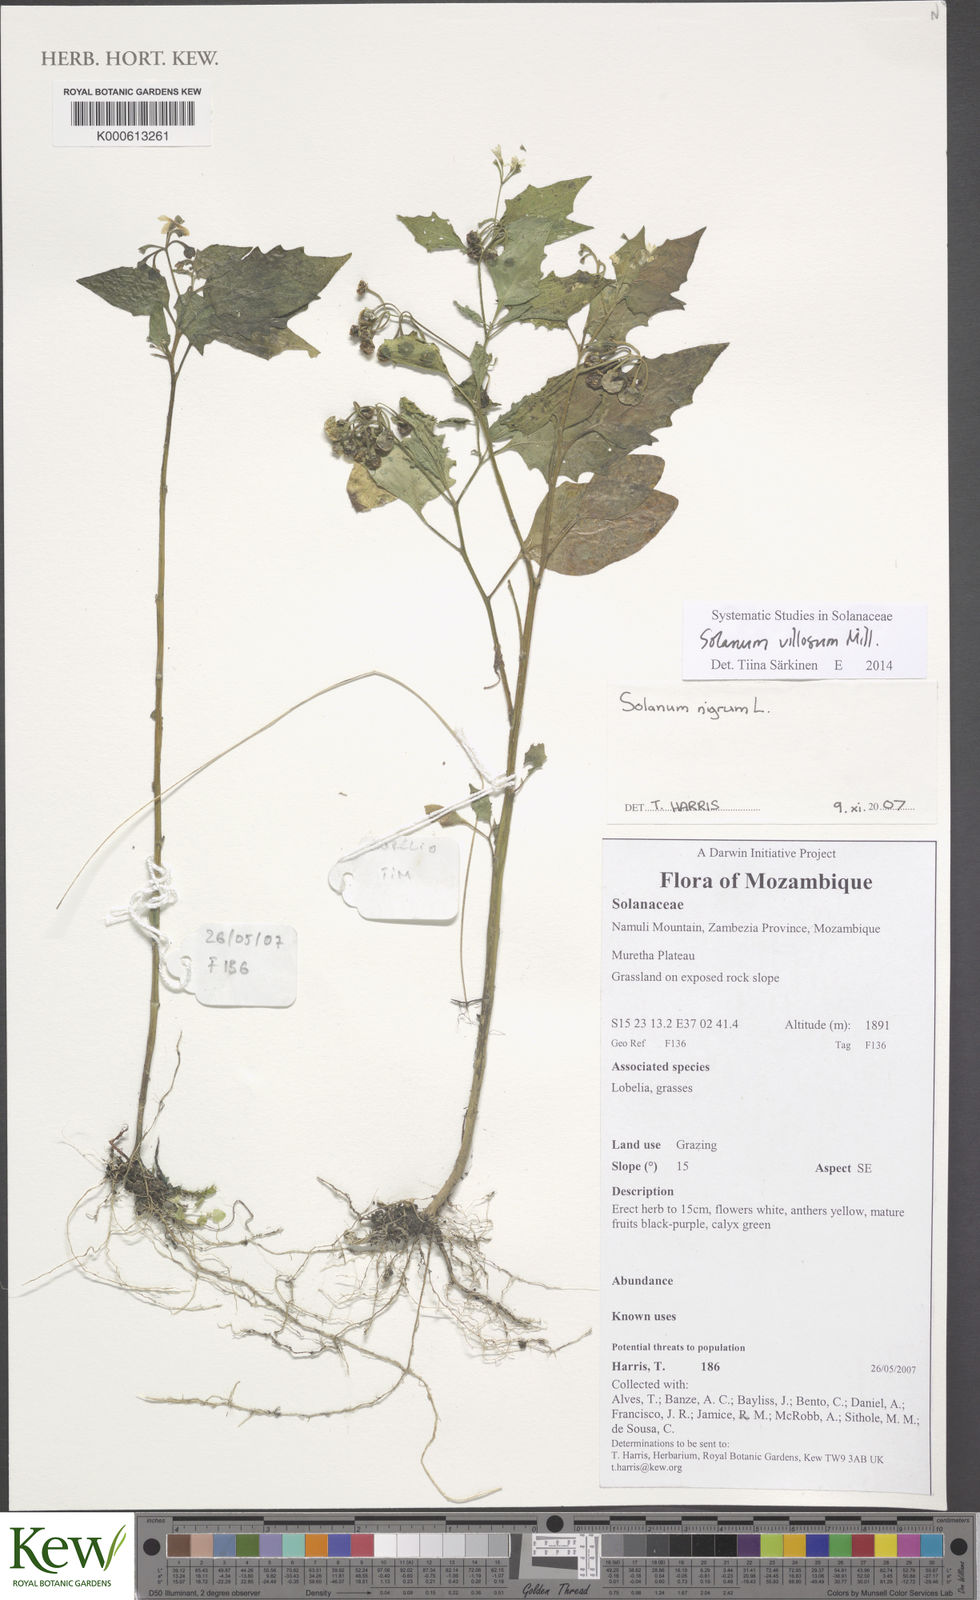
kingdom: Plantae
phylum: Tracheophyta
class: Magnoliopsida
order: Solanales
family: Solanaceae
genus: Solanum
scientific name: Solanum nigrum
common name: Black nightshade
